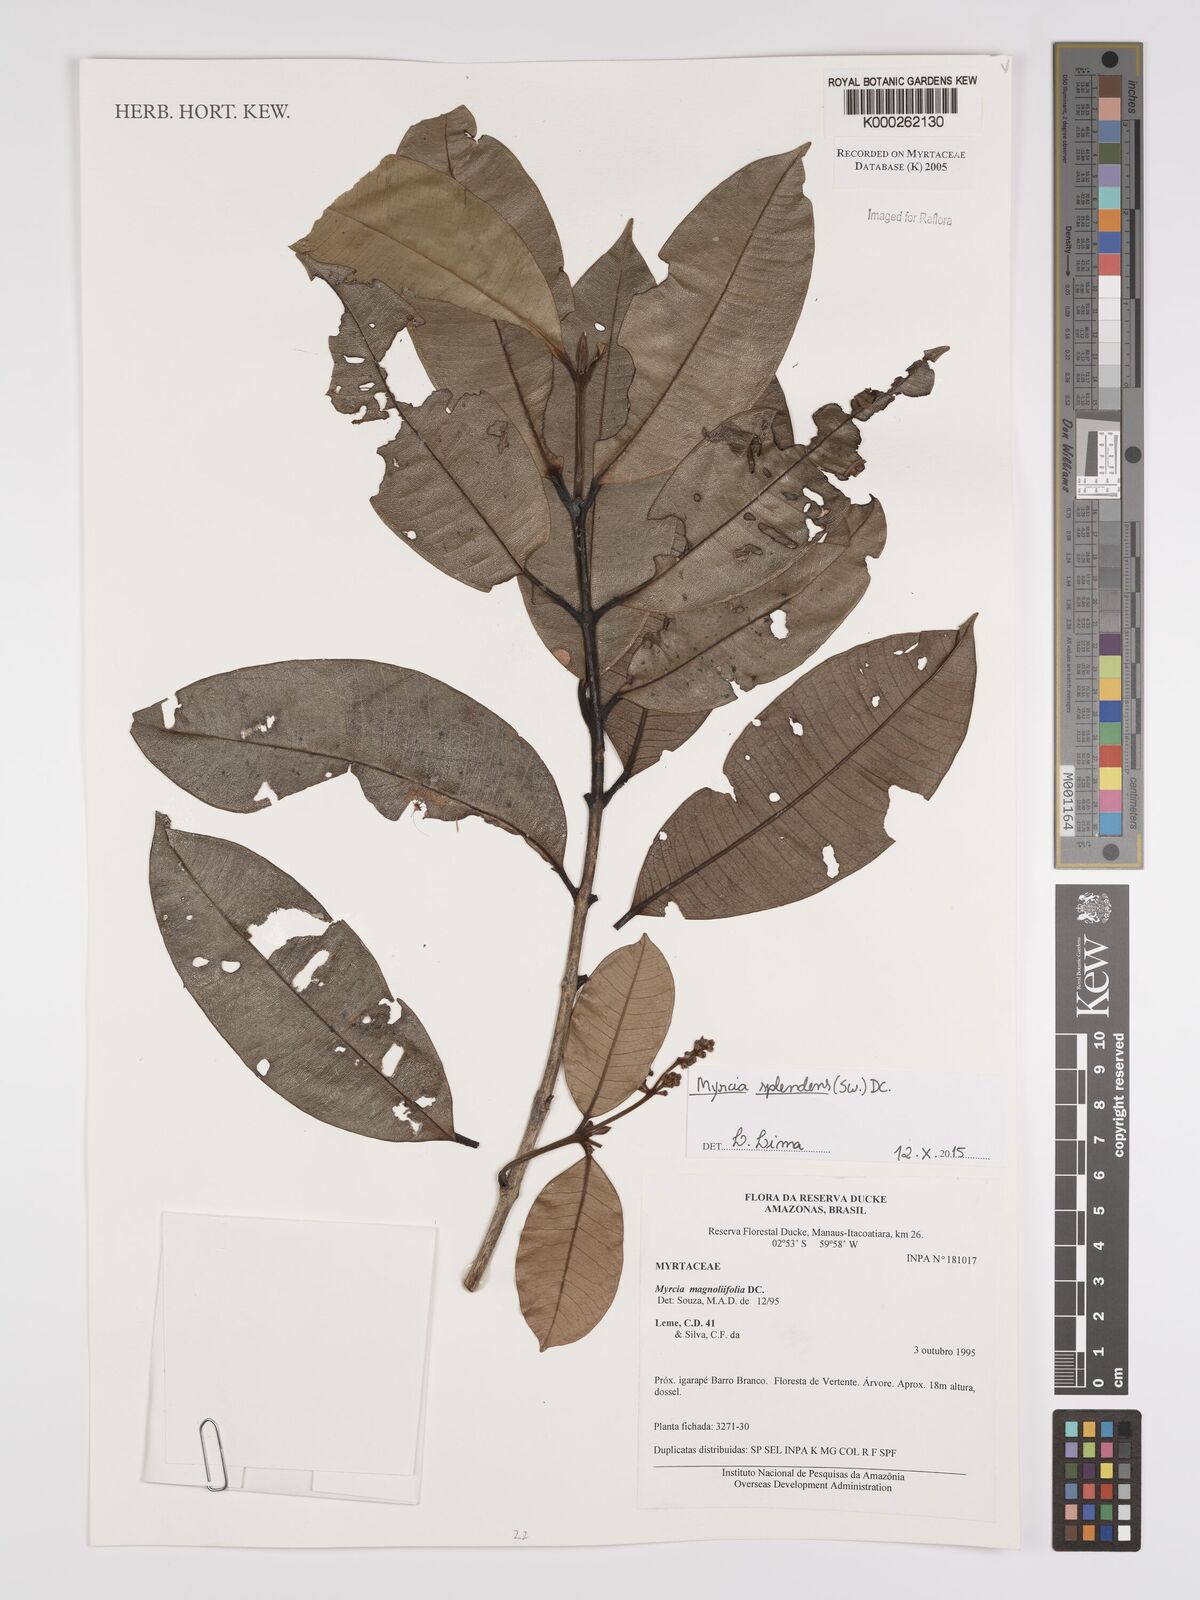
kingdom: Plantae
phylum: Tracheophyta
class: Magnoliopsida
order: Myrtales
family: Myrtaceae
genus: Myrcia
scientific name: Myrcia splendens
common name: Surinam cherry
